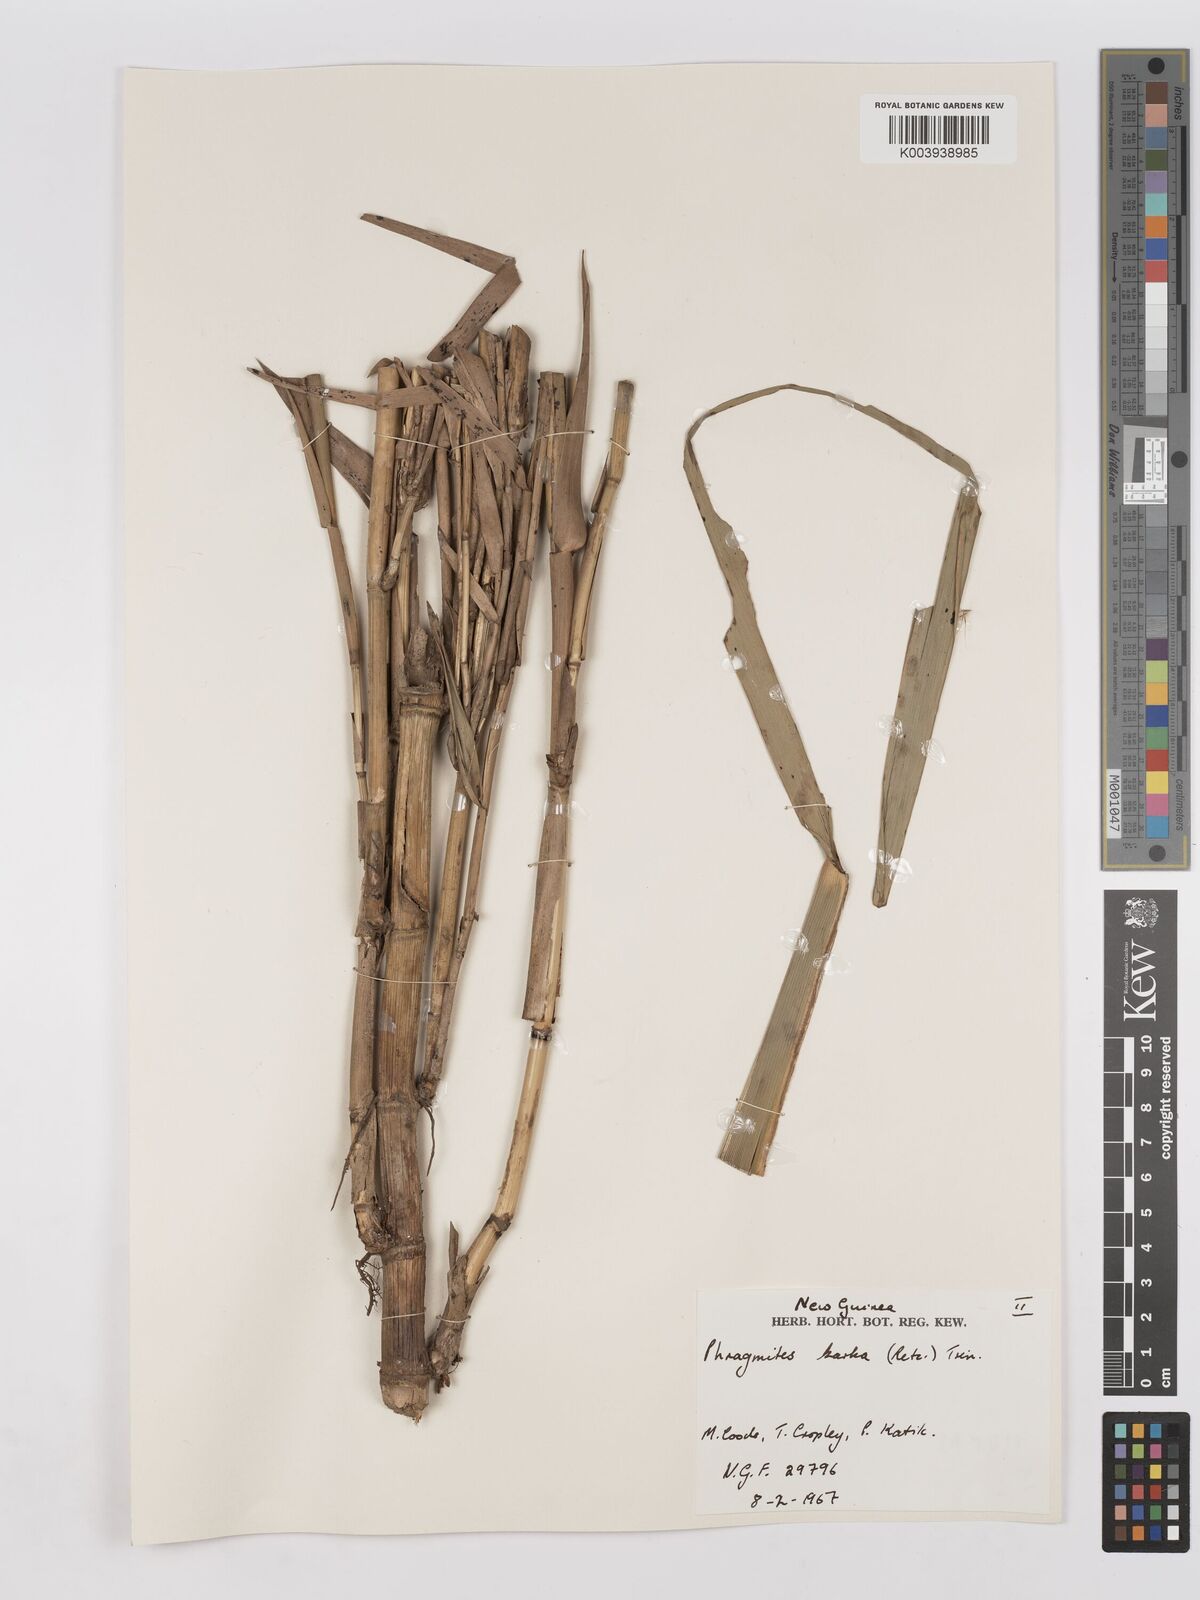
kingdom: Plantae
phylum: Tracheophyta
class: Liliopsida
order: Poales
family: Poaceae
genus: Phragmites
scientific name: Phragmites karka
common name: Tropical reed
